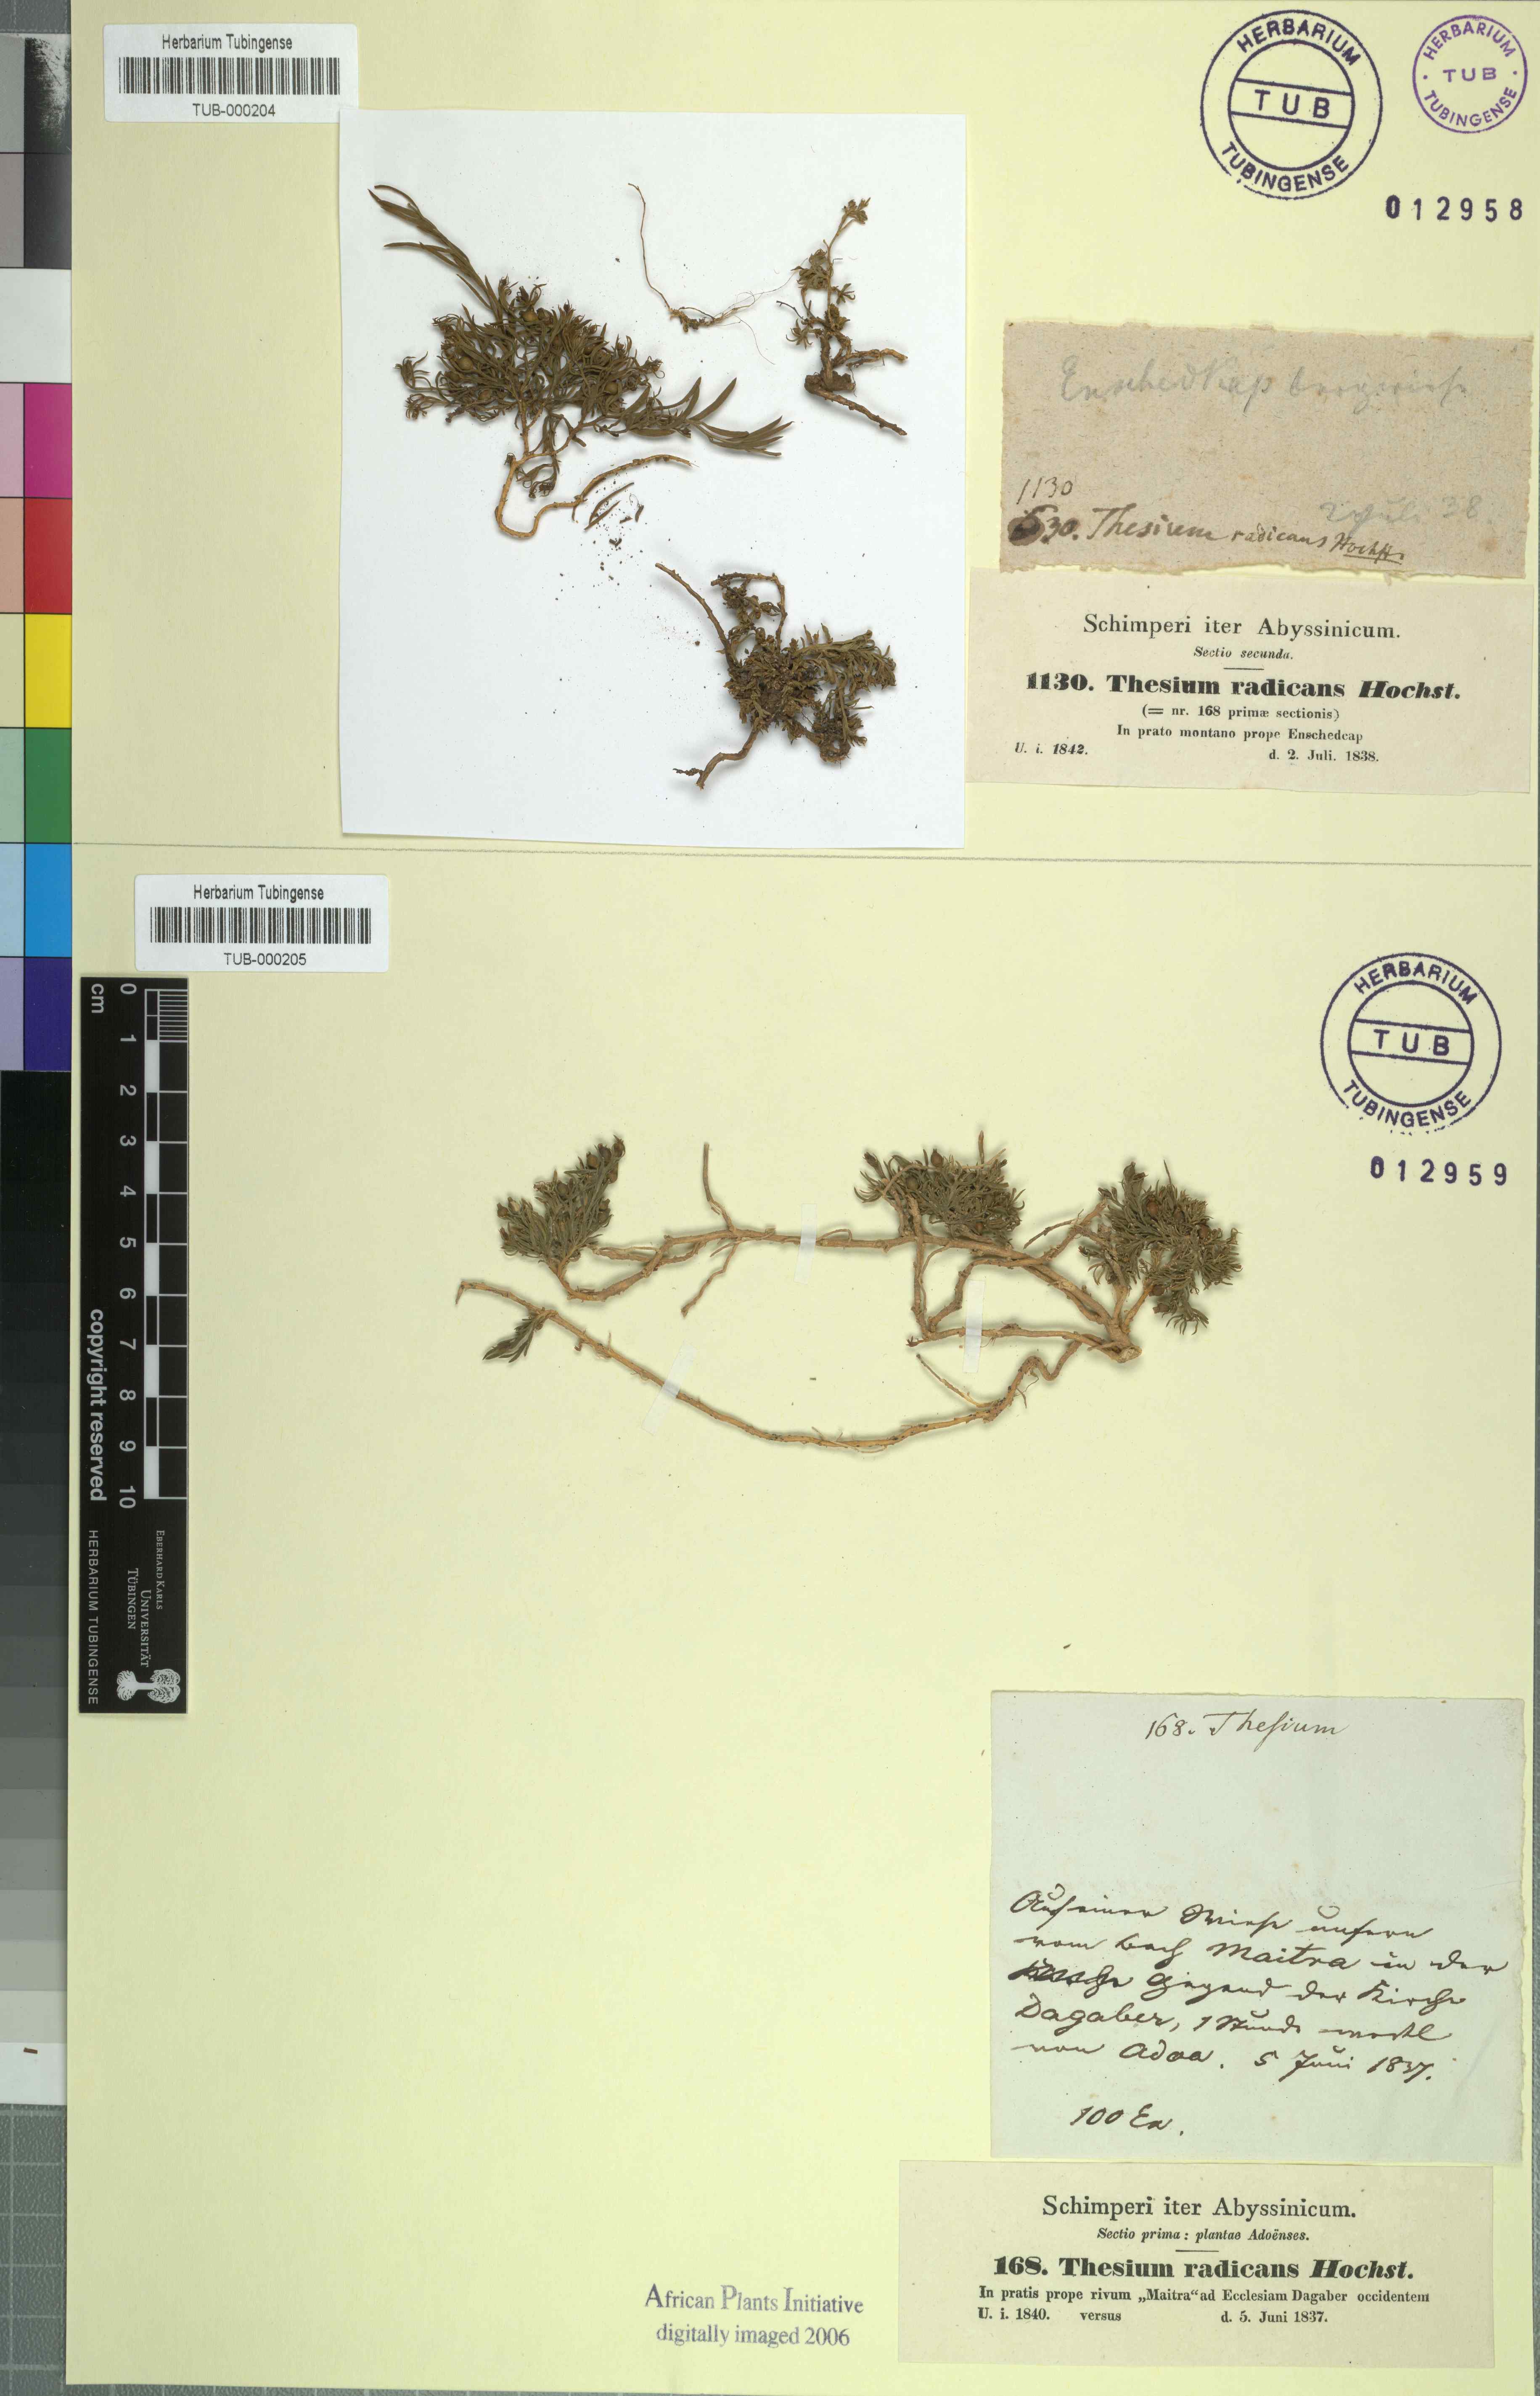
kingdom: Plantae
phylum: Tracheophyta
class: Magnoliopsida
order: Santalales
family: Thesiaceae
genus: Thesium
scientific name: Thesium radicans
